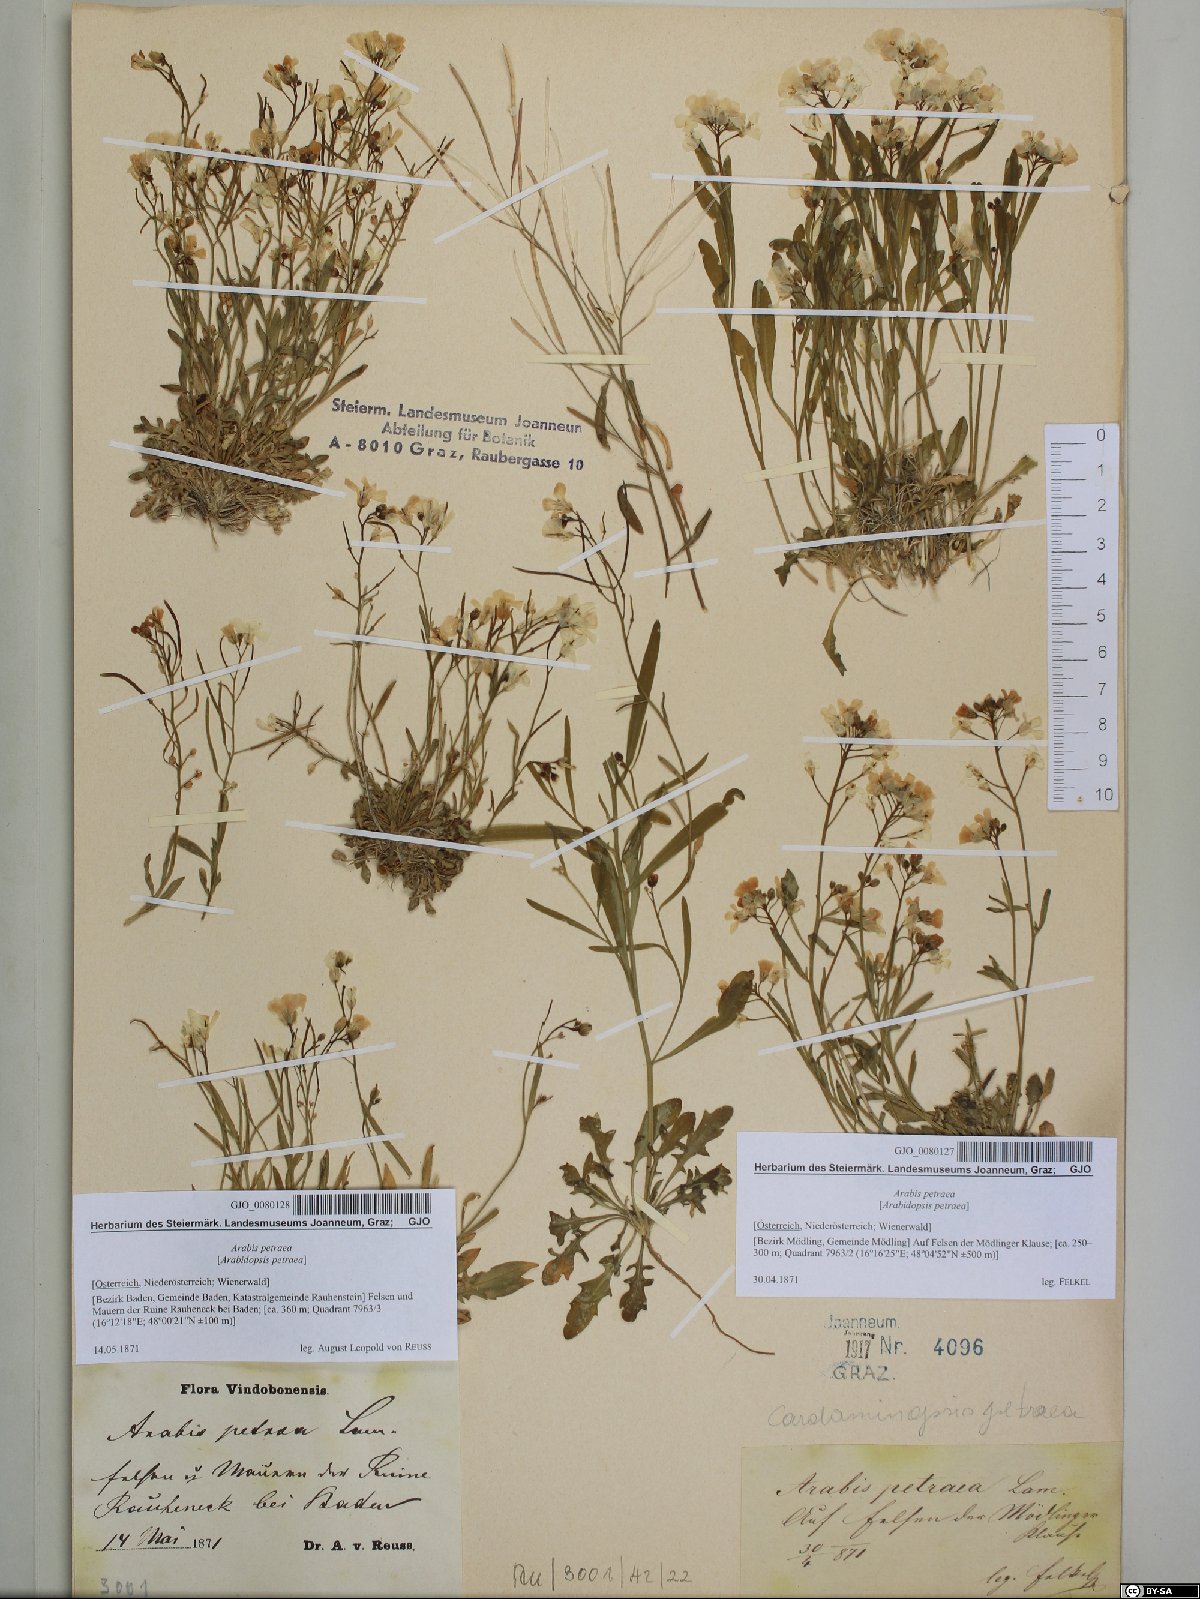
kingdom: Plantae
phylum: Tracheophyta
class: Magnoliopsida
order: Brassicales
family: Brassicaceae
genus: Arabidopsis
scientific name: Arabidopsis lyrata
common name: Lyrate rockcress
